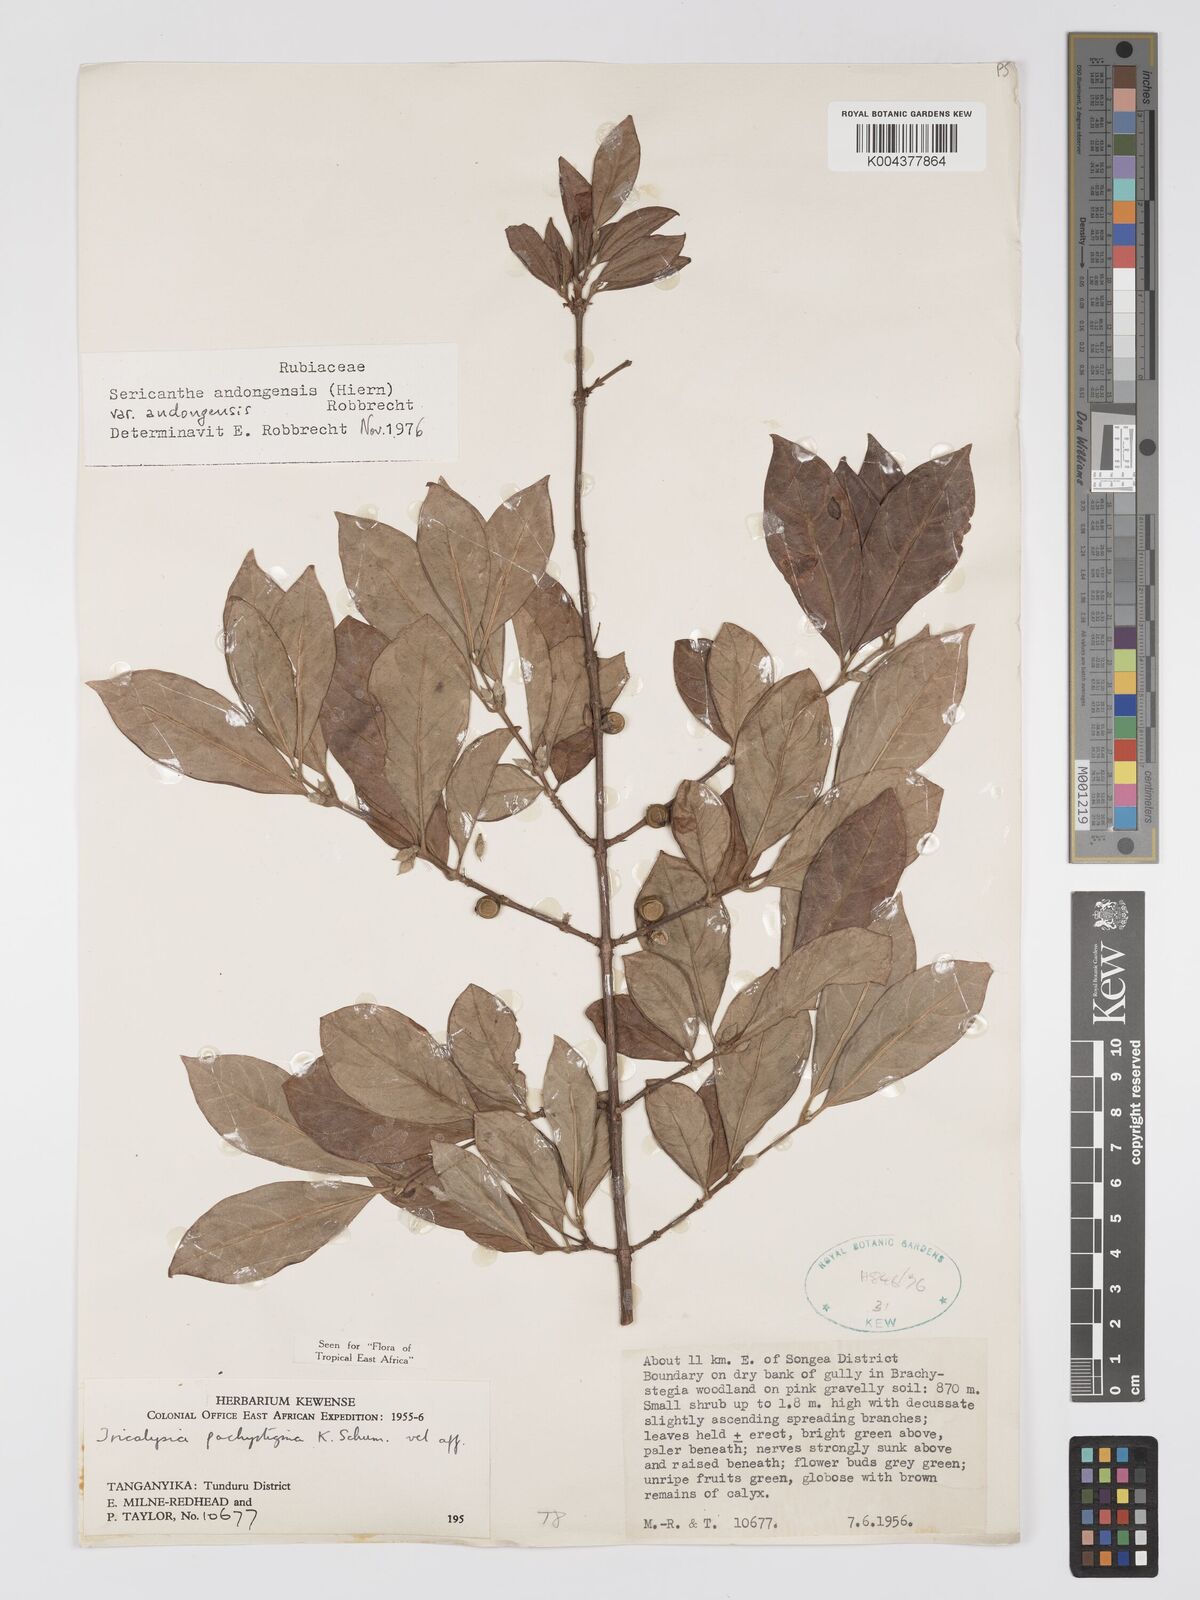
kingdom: Plantae
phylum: Tracheophyta
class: Magnoliopsida
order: Gentianales
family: Rubiaceae
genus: Sericanthe
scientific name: Sericanthe andongensis
